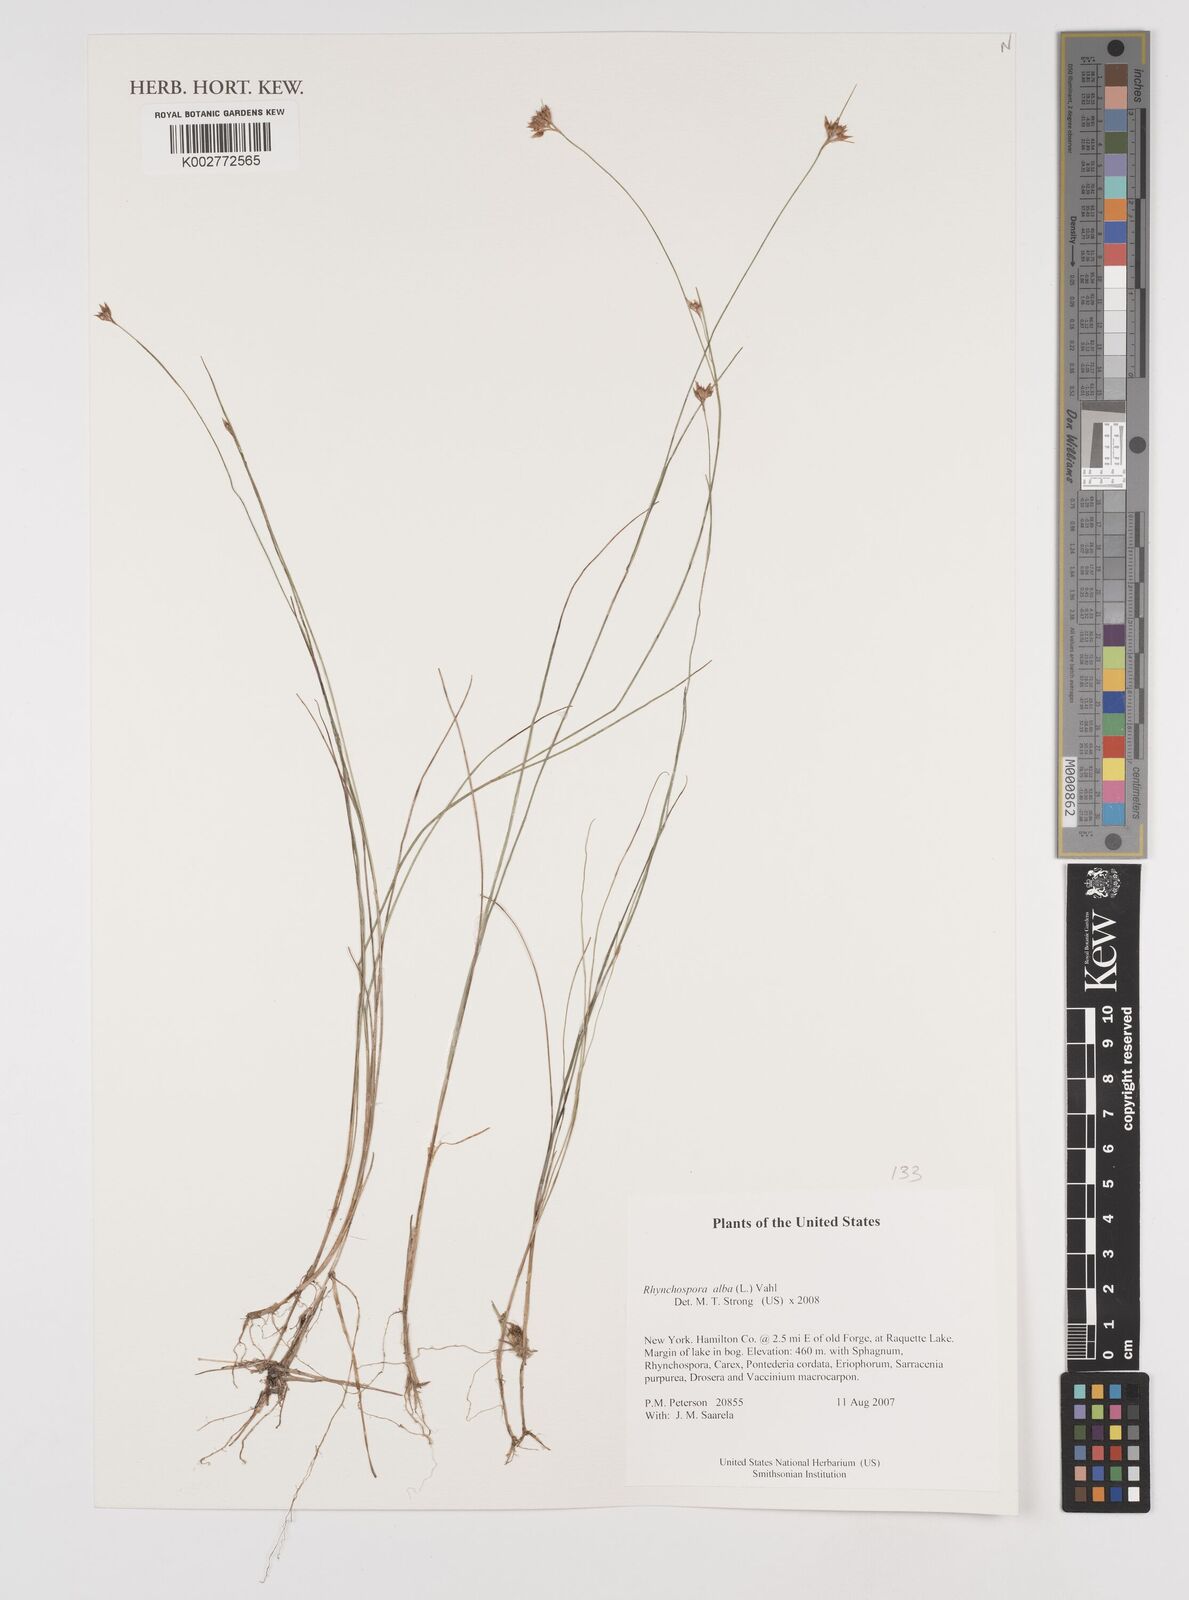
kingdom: Plantae
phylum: Tracheophyta
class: Liliopsida
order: Poales
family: Cyperaceae
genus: Rhynchospora
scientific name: Rhynchospora alba
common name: White beak-sedge
